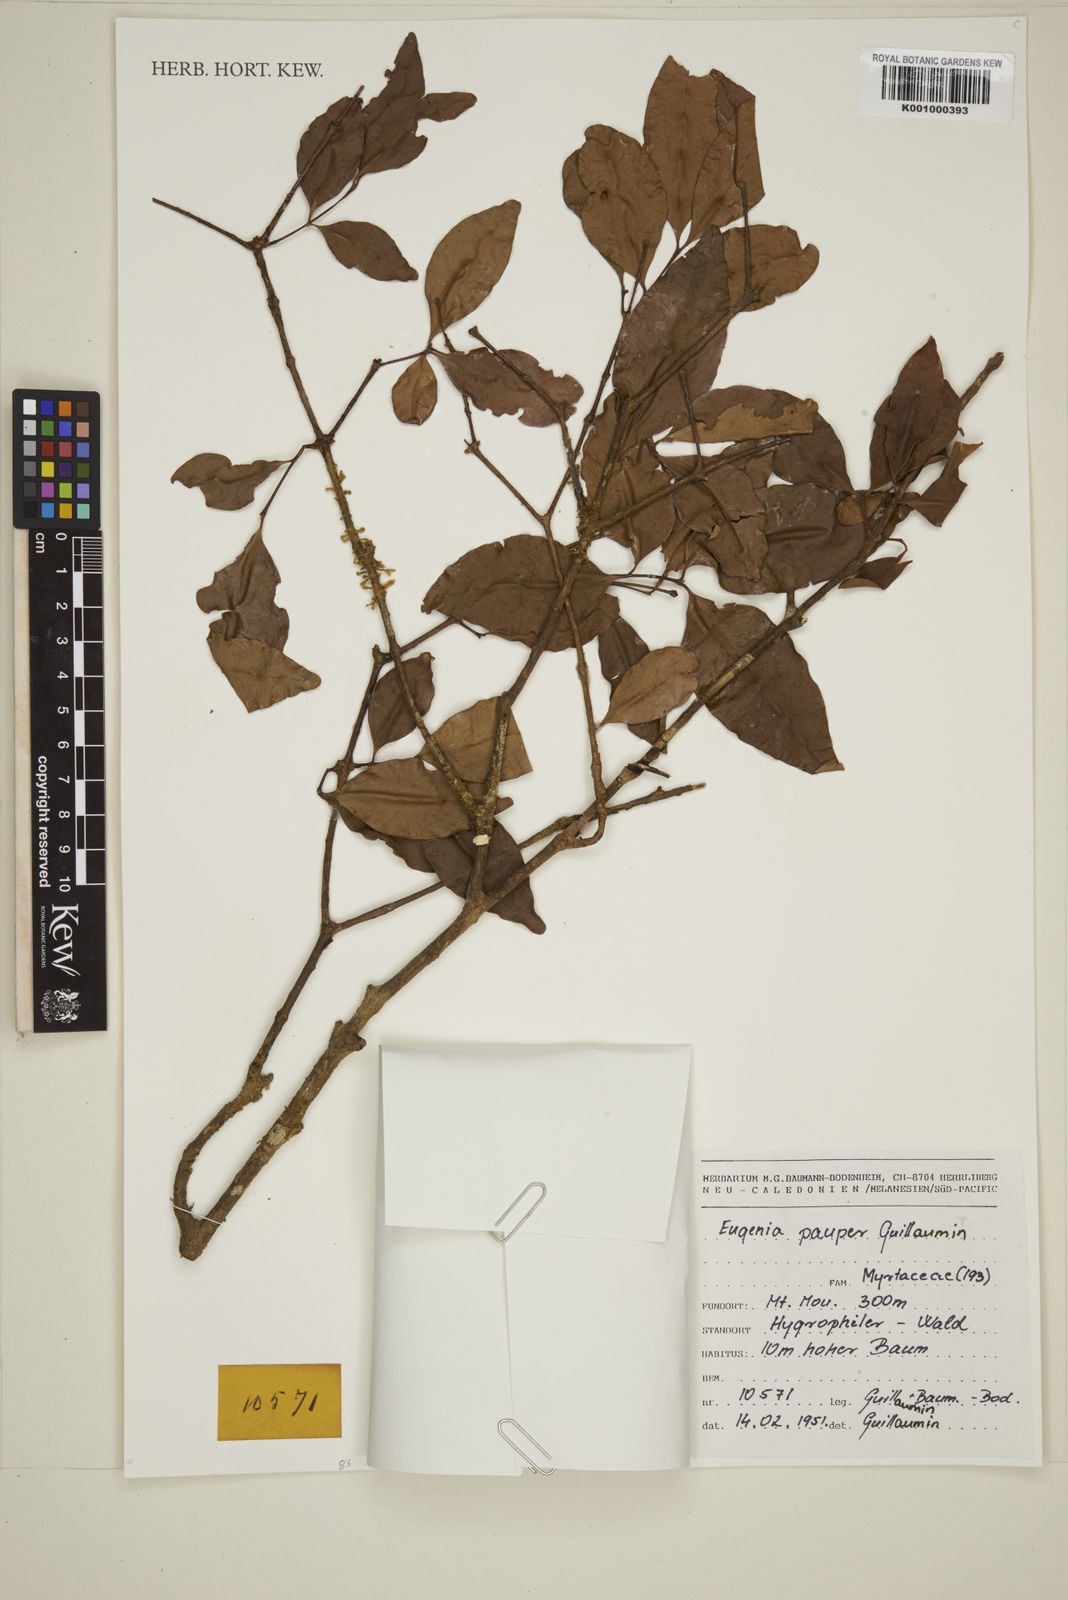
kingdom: Plantae
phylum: Tracheophyta
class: Magnoliopsida
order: Myrtales
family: Myrtaceae
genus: Syzygium
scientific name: Syzygium pauper
